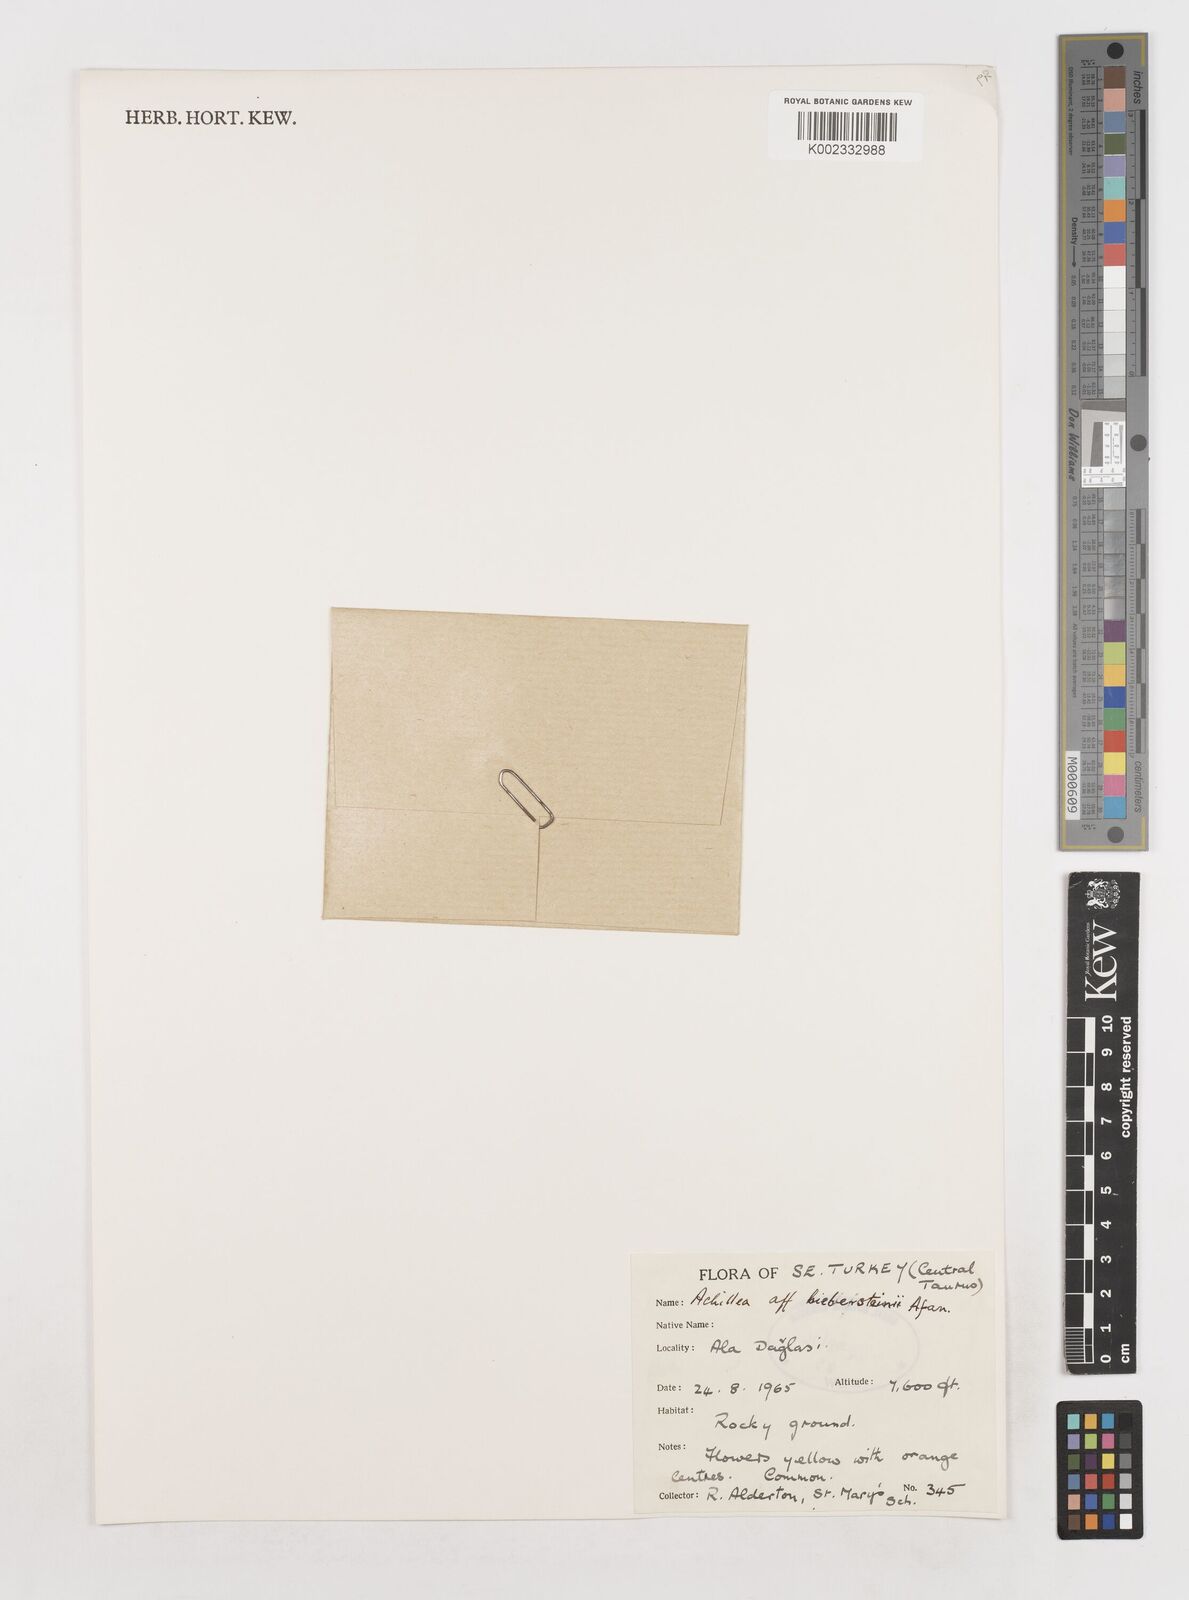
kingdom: Plantae
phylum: Tracheophyta
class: Magnoliopsida
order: Asterales
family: Asteraceae
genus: Achillea
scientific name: Achillea arabica
